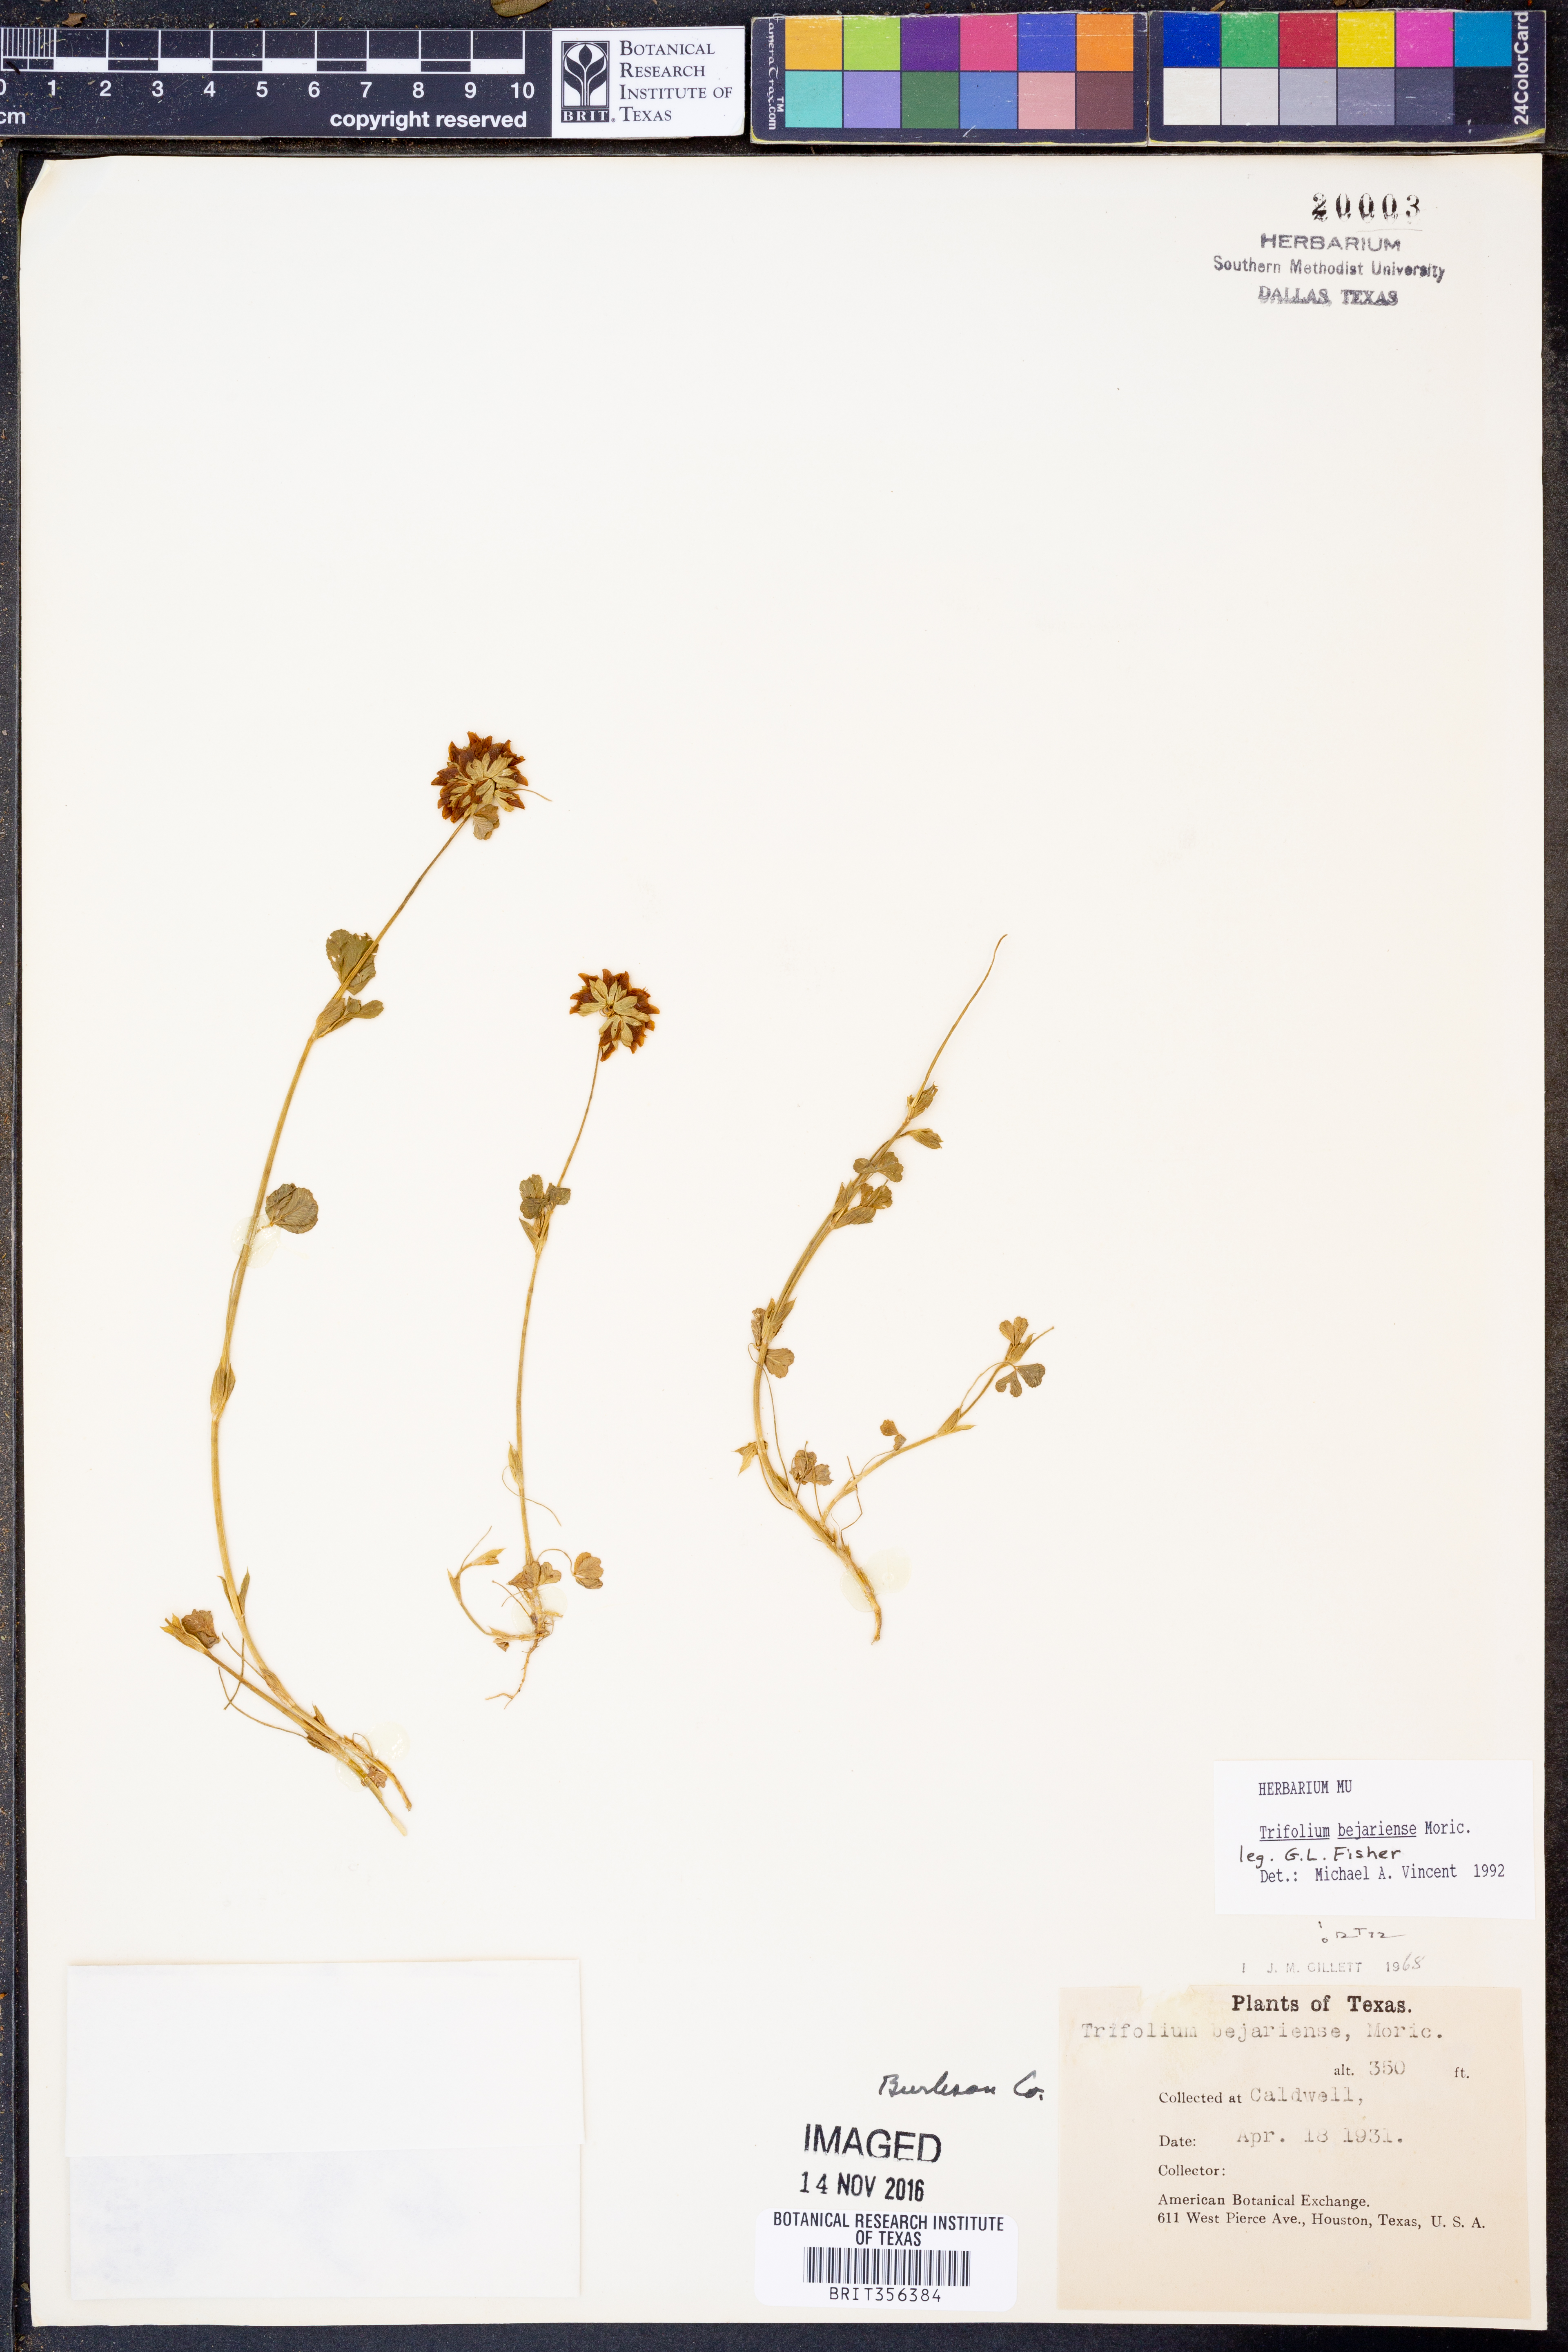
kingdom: Plantae
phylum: Tracheophyta
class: Magnoliopsida
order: Fabales
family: Fabaceae
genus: Trifolium
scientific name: Trifolium bejariense
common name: Bejar clover
